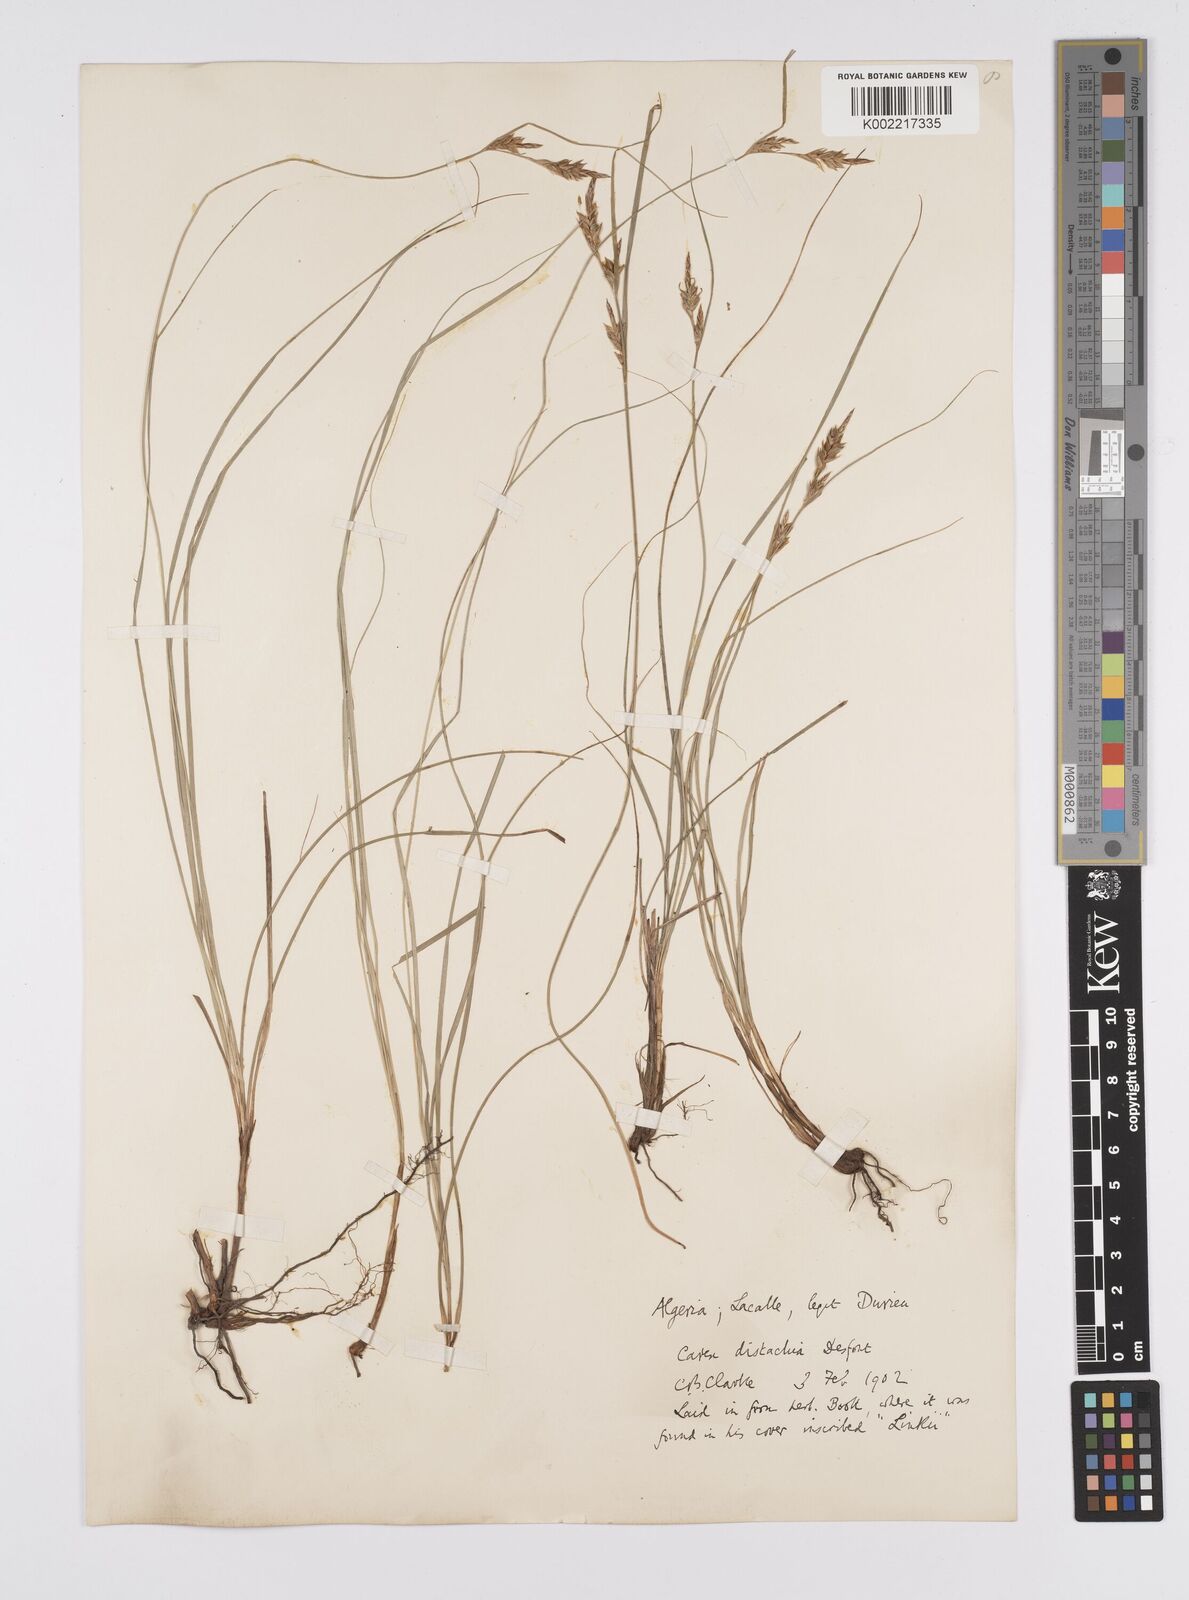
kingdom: Plantae
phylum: Tracheophyta
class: Liliopsida
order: Poales
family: Cyperaceae
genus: Carex
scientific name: Carex distachya
